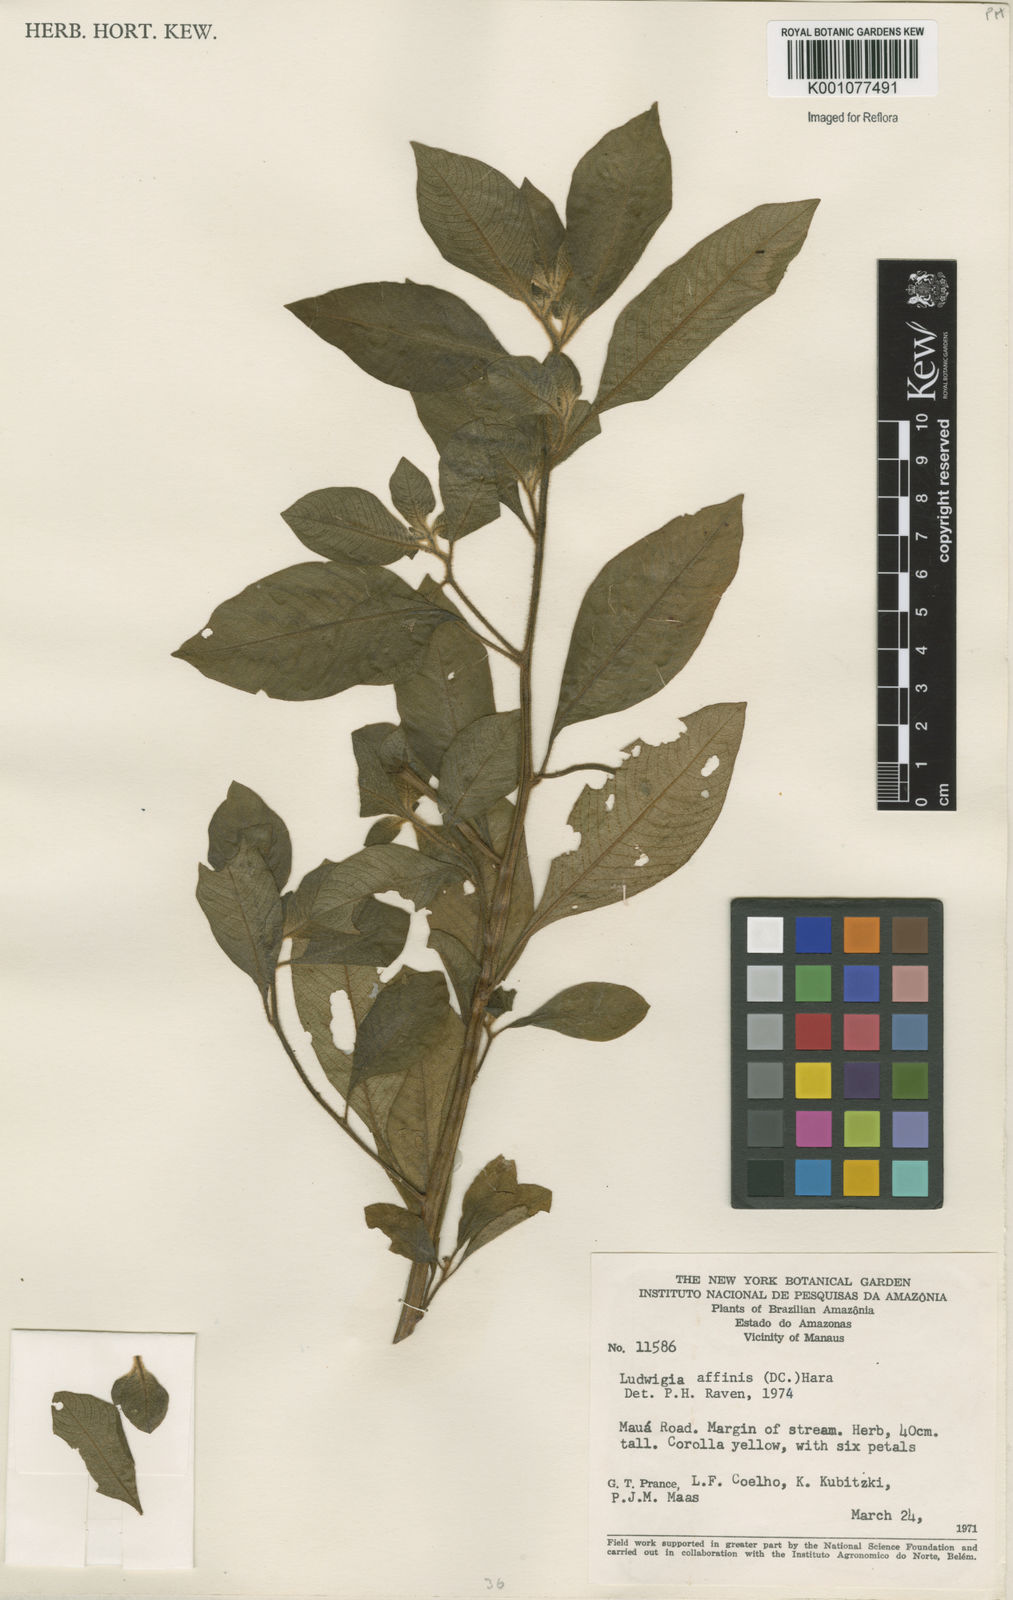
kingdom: Plantae
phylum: Tracheophyta
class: Magnoliopsida
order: Myrtales
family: Onagraceae
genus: Ludwigia
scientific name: Ludwigia affinis
